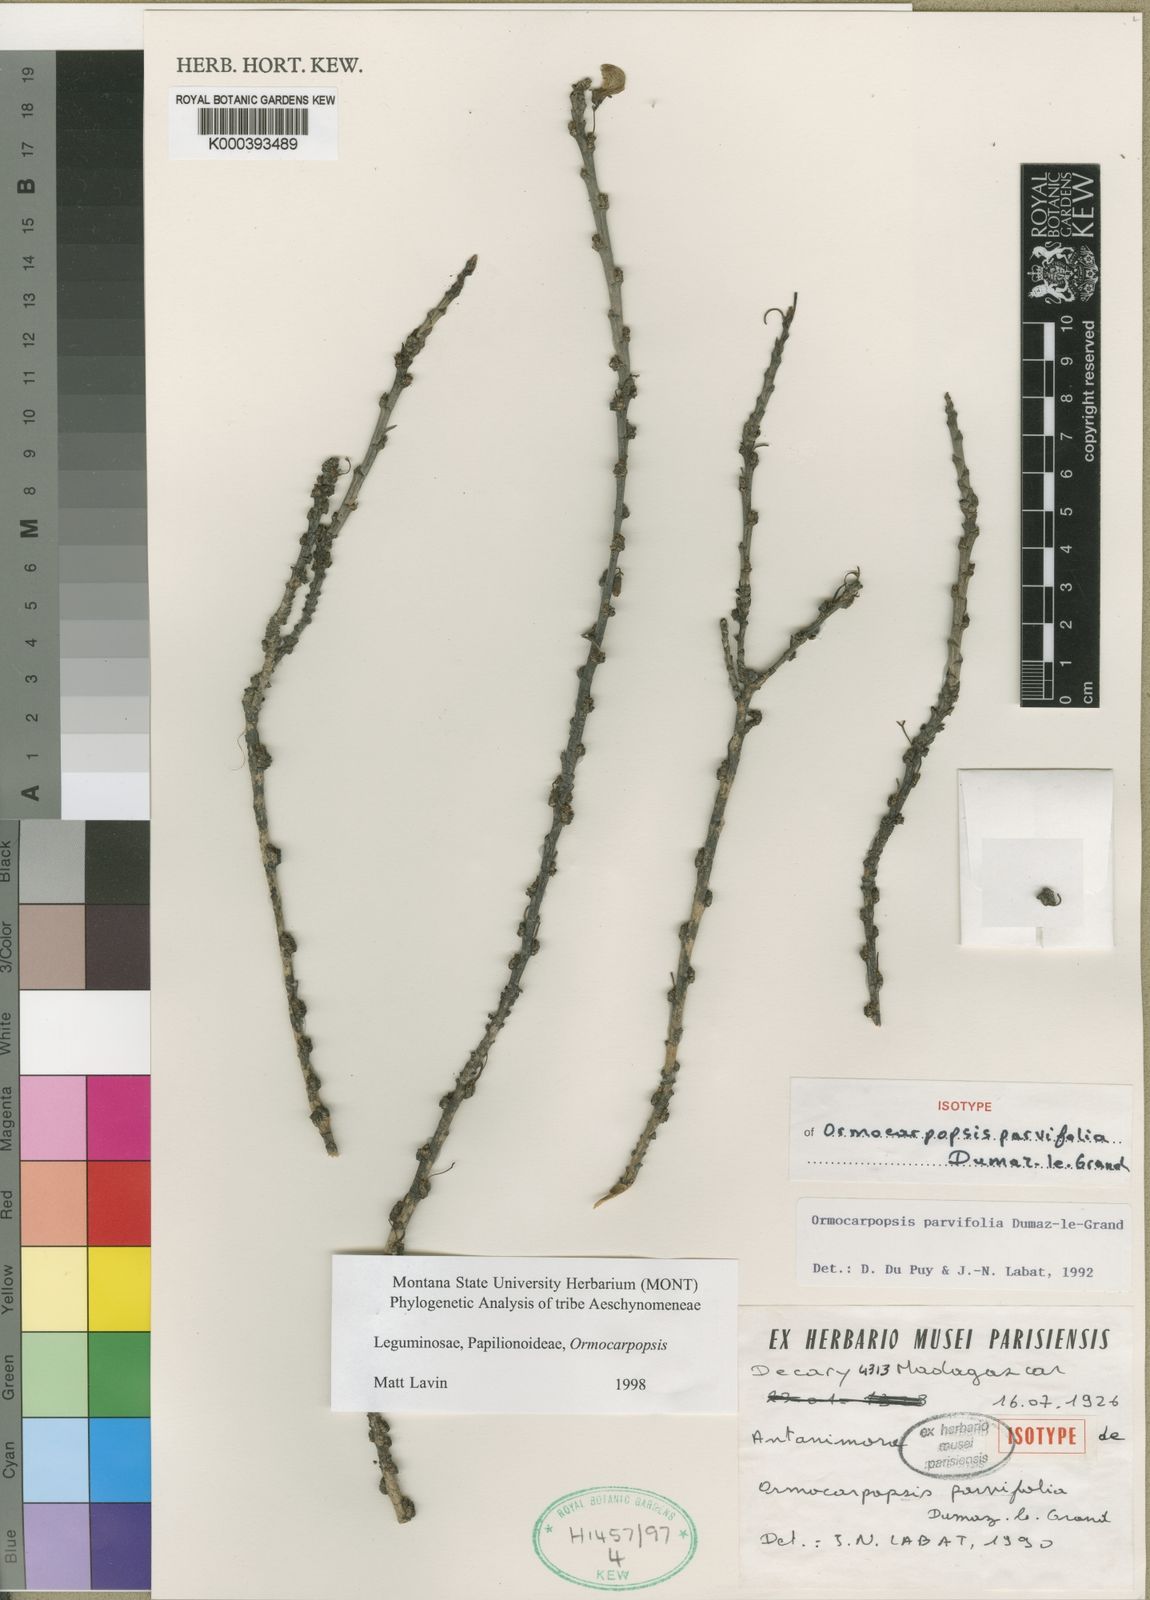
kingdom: Plantae
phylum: Tracheophyta
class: Magnoliopsida
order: Fabales
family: Fabaceae
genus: Ormocarpopsis
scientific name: Ormocarpopsis parvifolia
